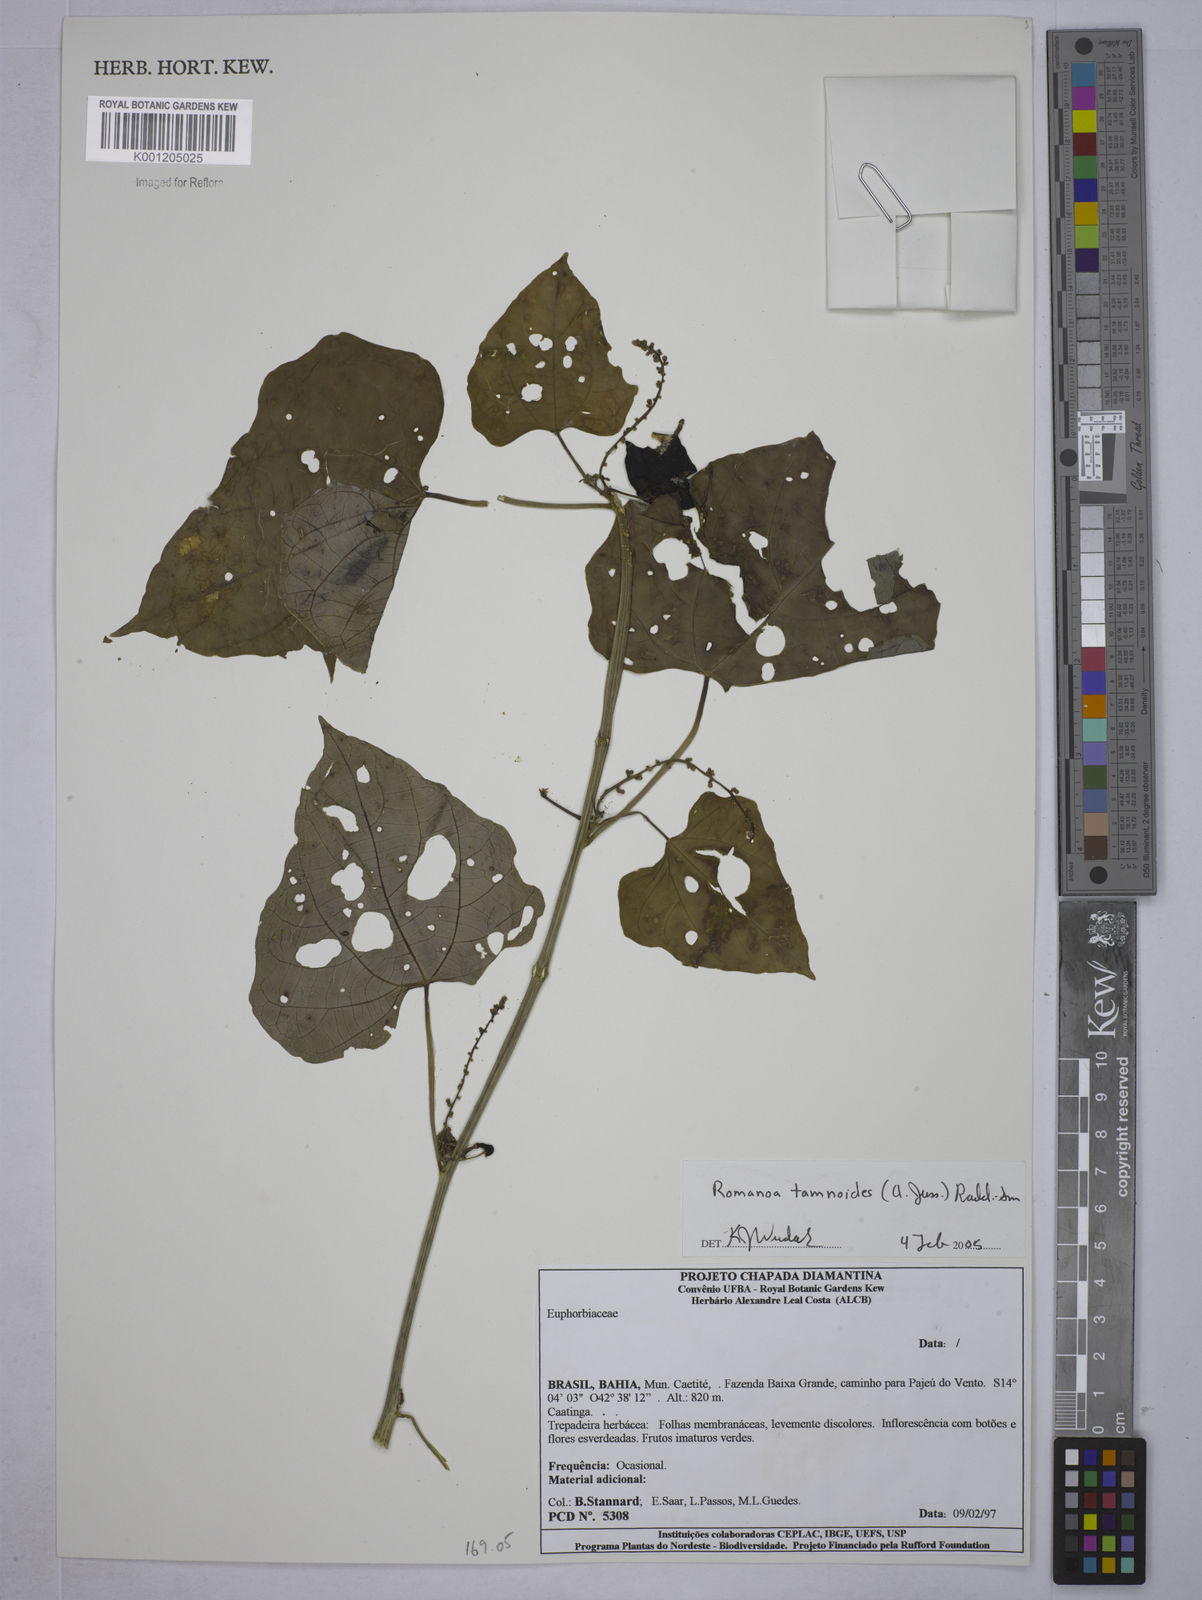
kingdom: Plantae
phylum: Tracheophyta
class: Magnoliopsida
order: Malpighiales
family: Euphorbiaceae
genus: Romanoa
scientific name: Romanoa tamnoides
